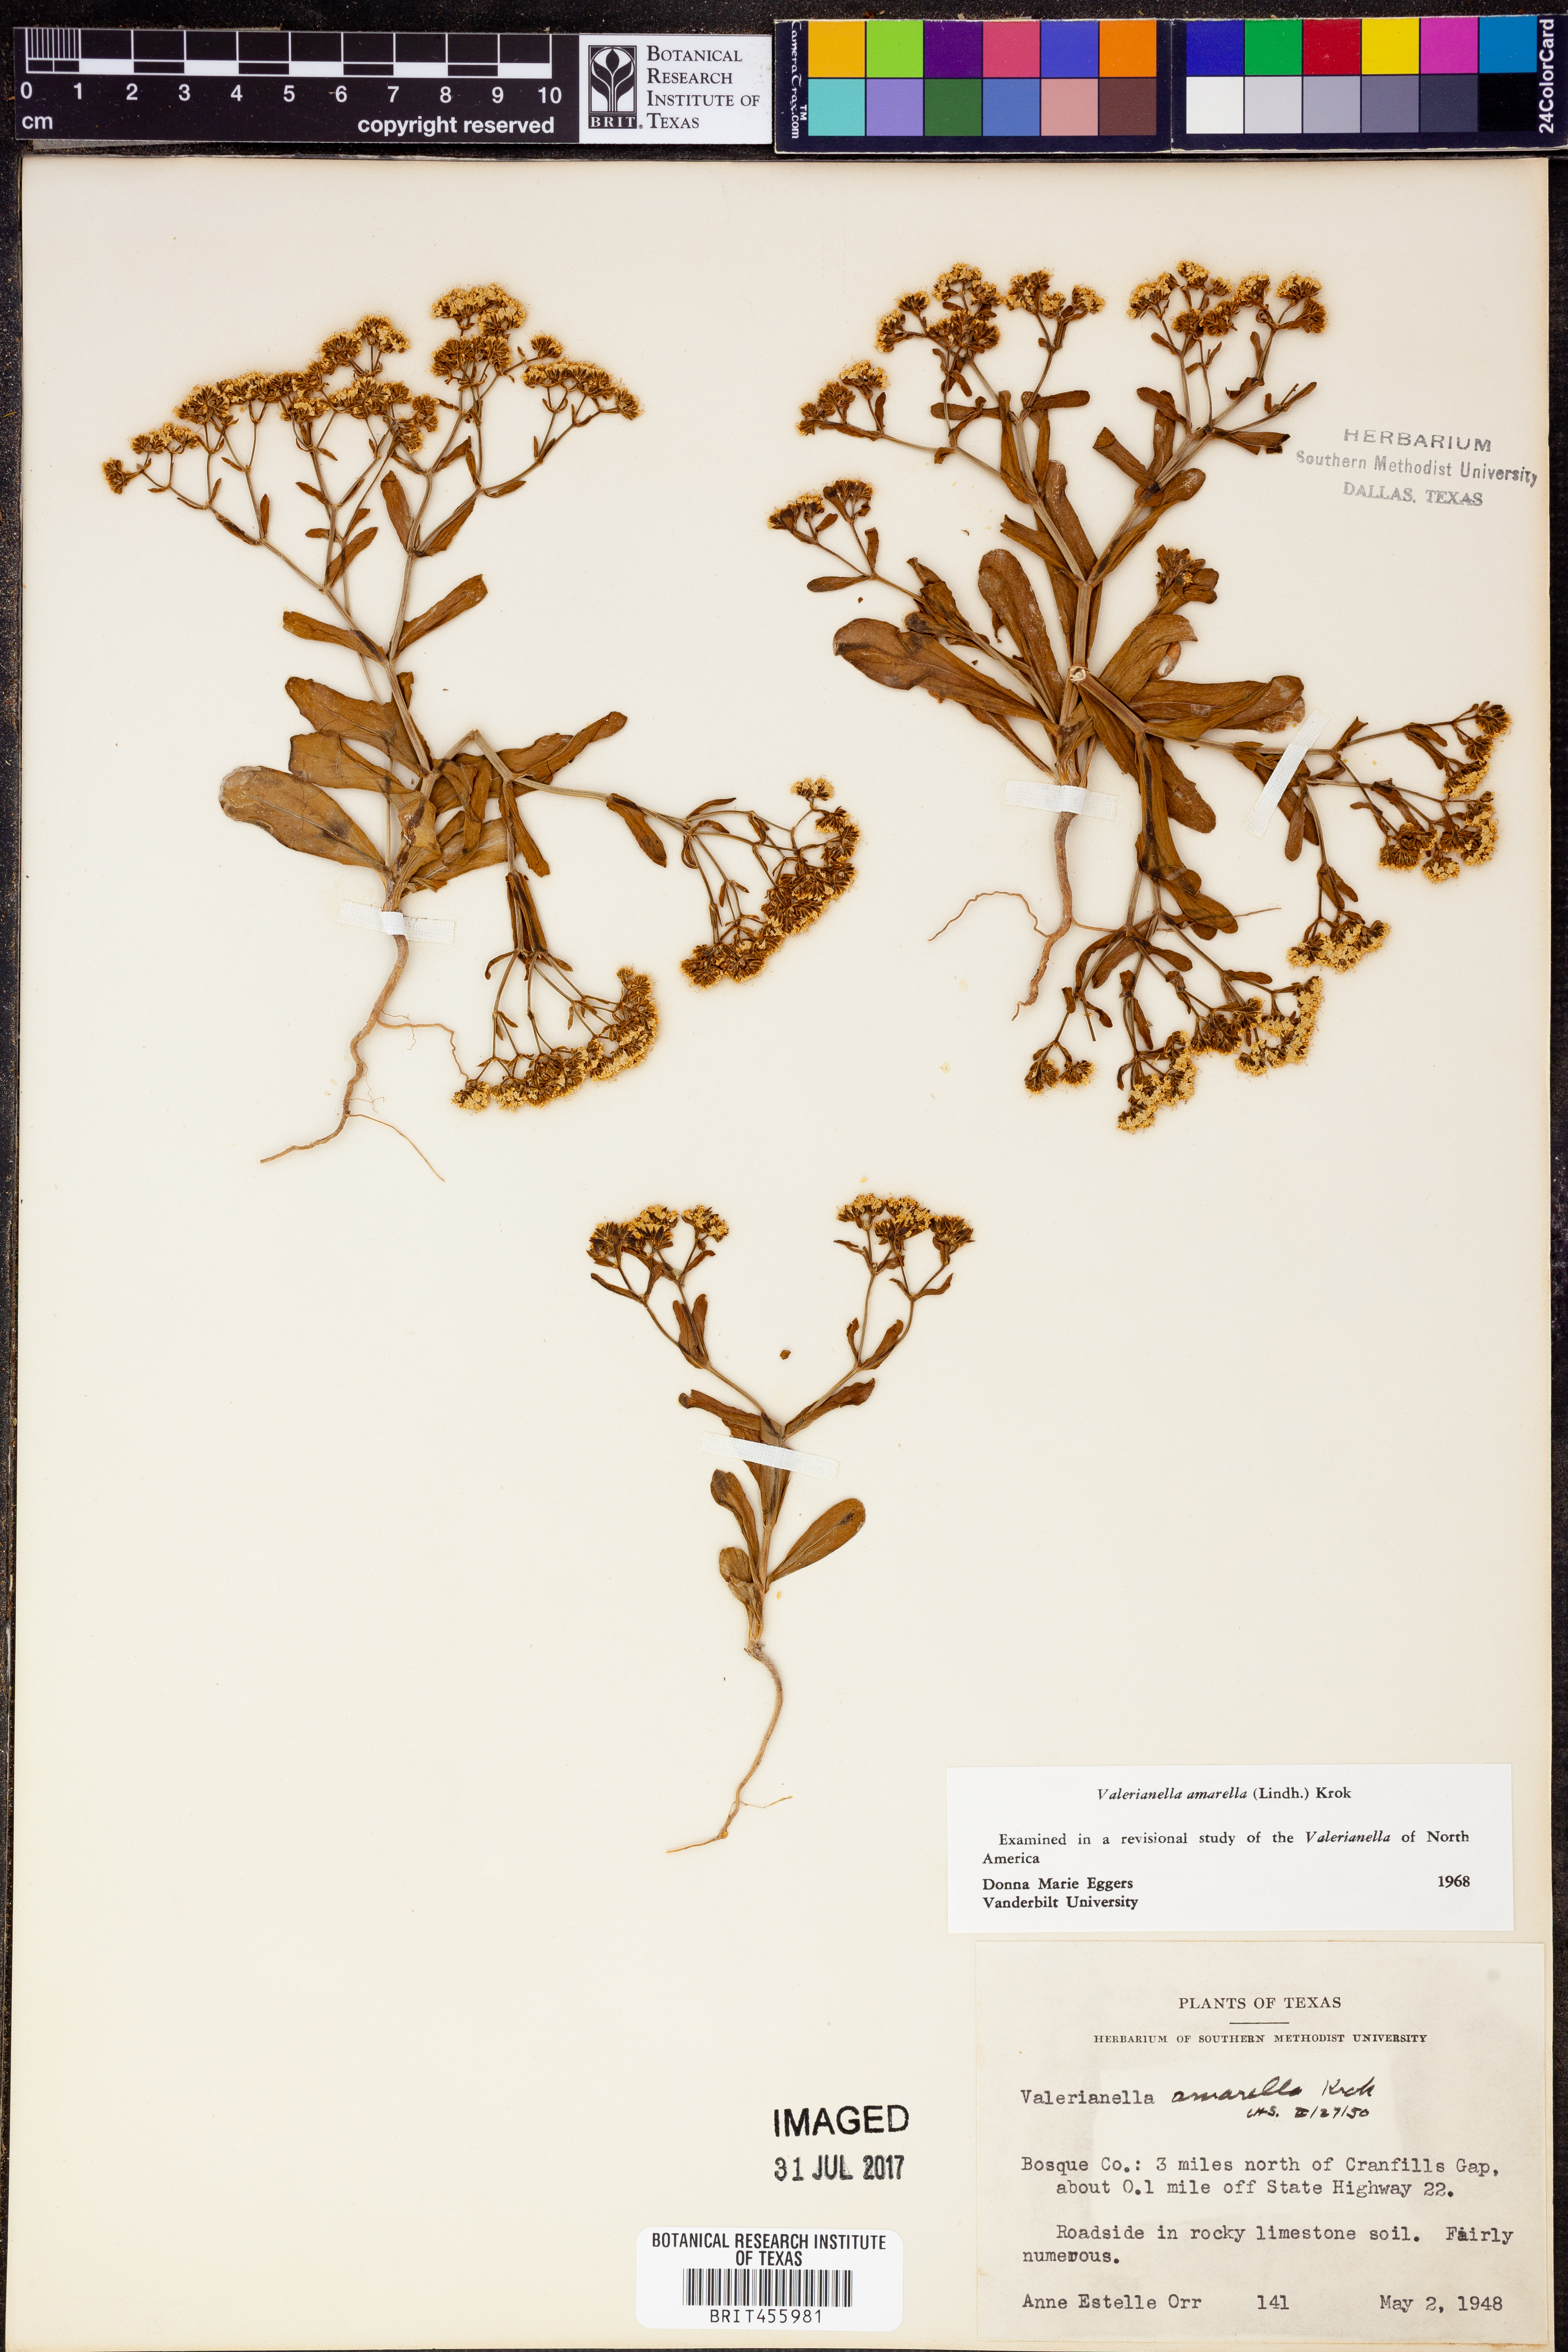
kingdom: Plantae
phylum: Tracheophyta
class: Magnoliopsida
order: Dipsacales
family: Caprifoliaceae
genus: Valerianella
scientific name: Valerianella amarella
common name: Hariy cornsalad
